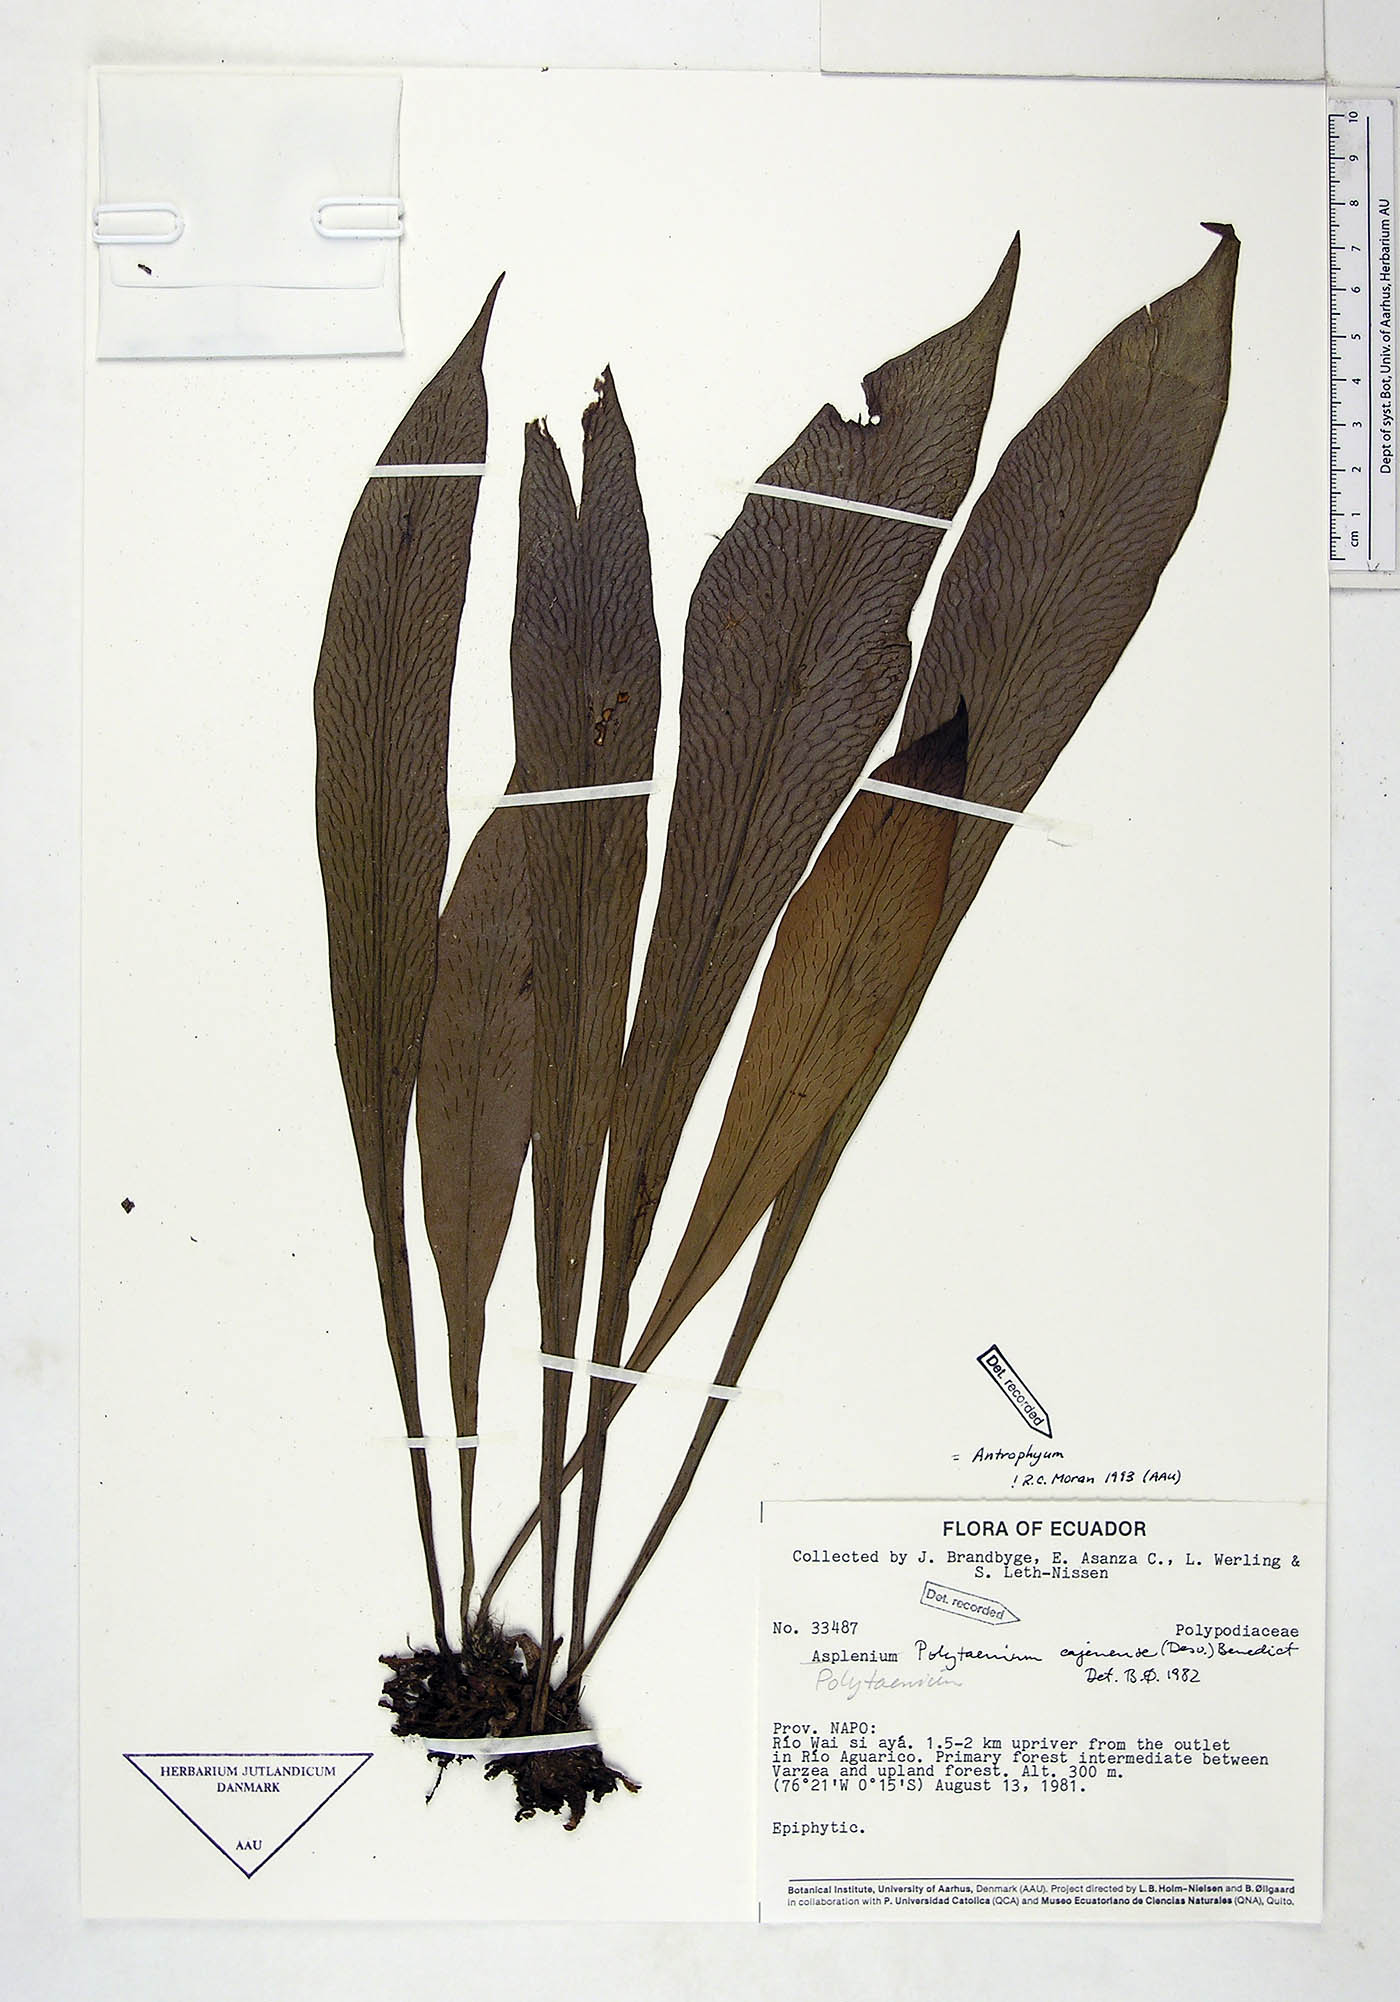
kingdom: Plantae
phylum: Tracheophyta
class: Polypodiopsida
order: Polypodiales
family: Pteridaceae
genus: Polytaenium
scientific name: Polytaenium cajenense
